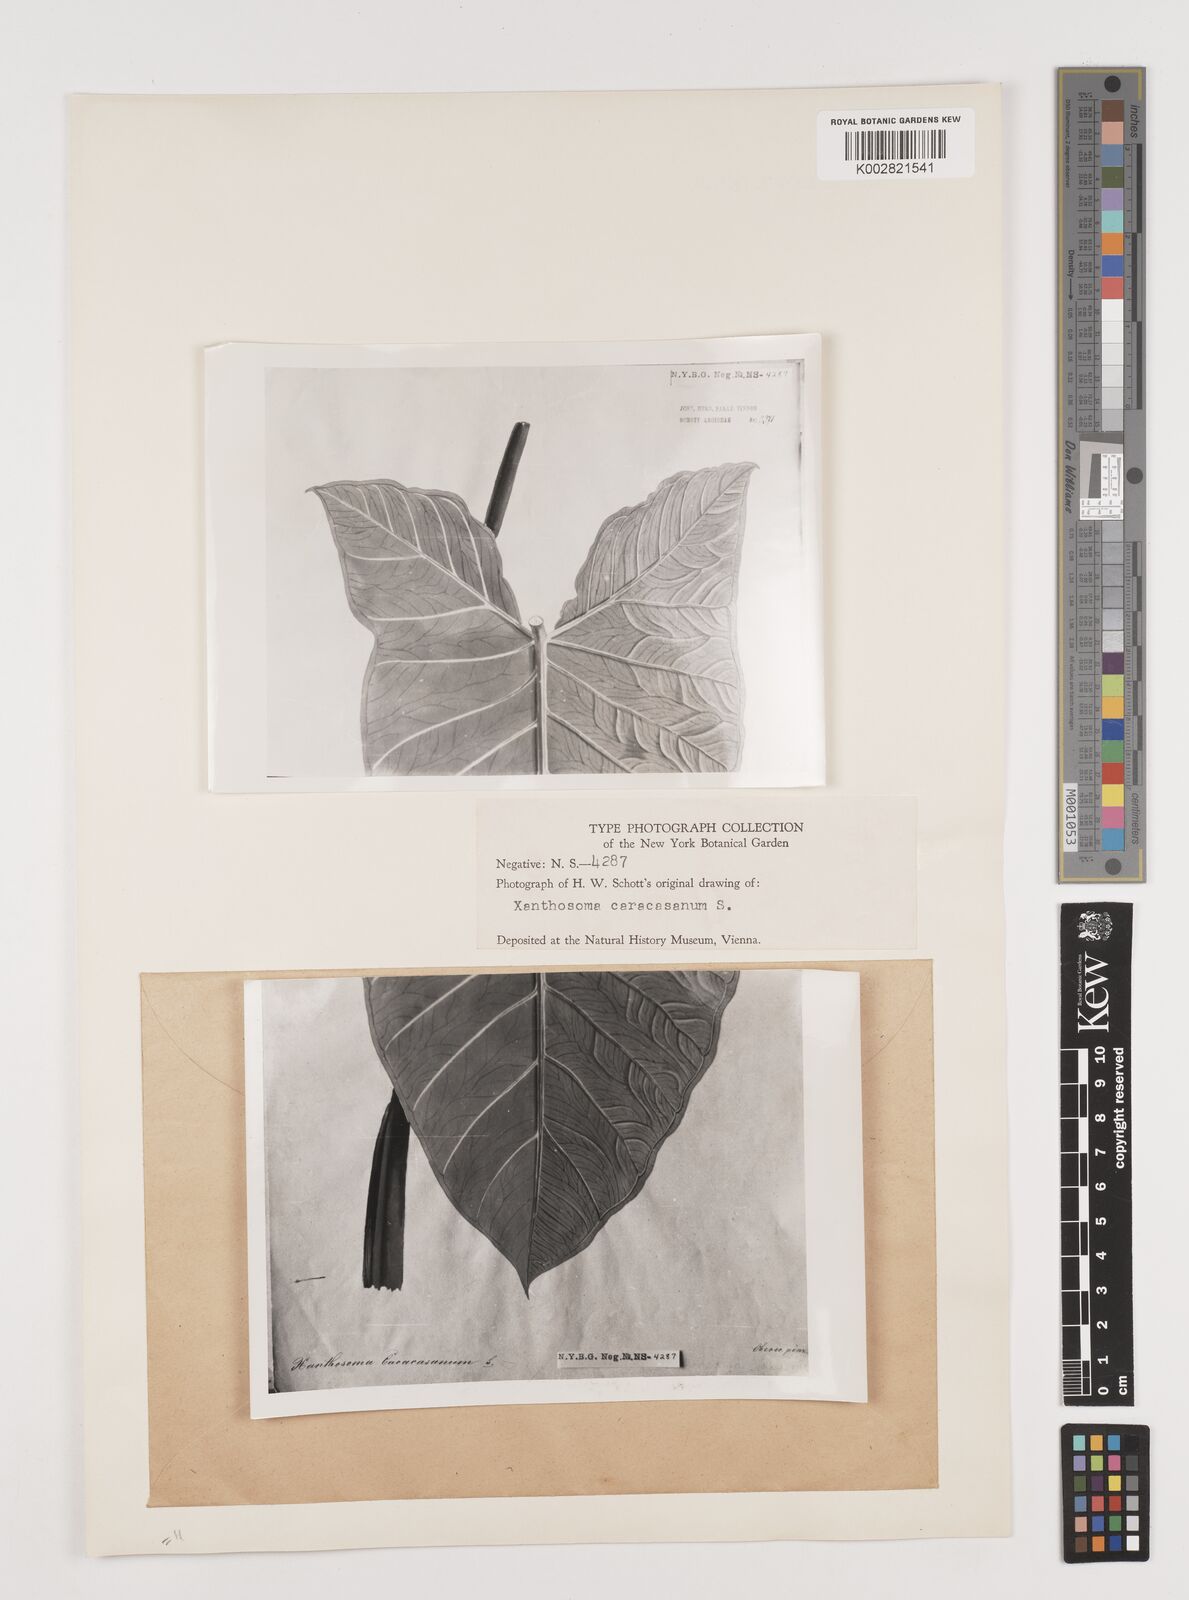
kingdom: Plantae
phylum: Tracheophyta
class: Liliopsida
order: Alismatales
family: Araceae
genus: Xanthosoma
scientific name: Xanthosoma belophyllum
